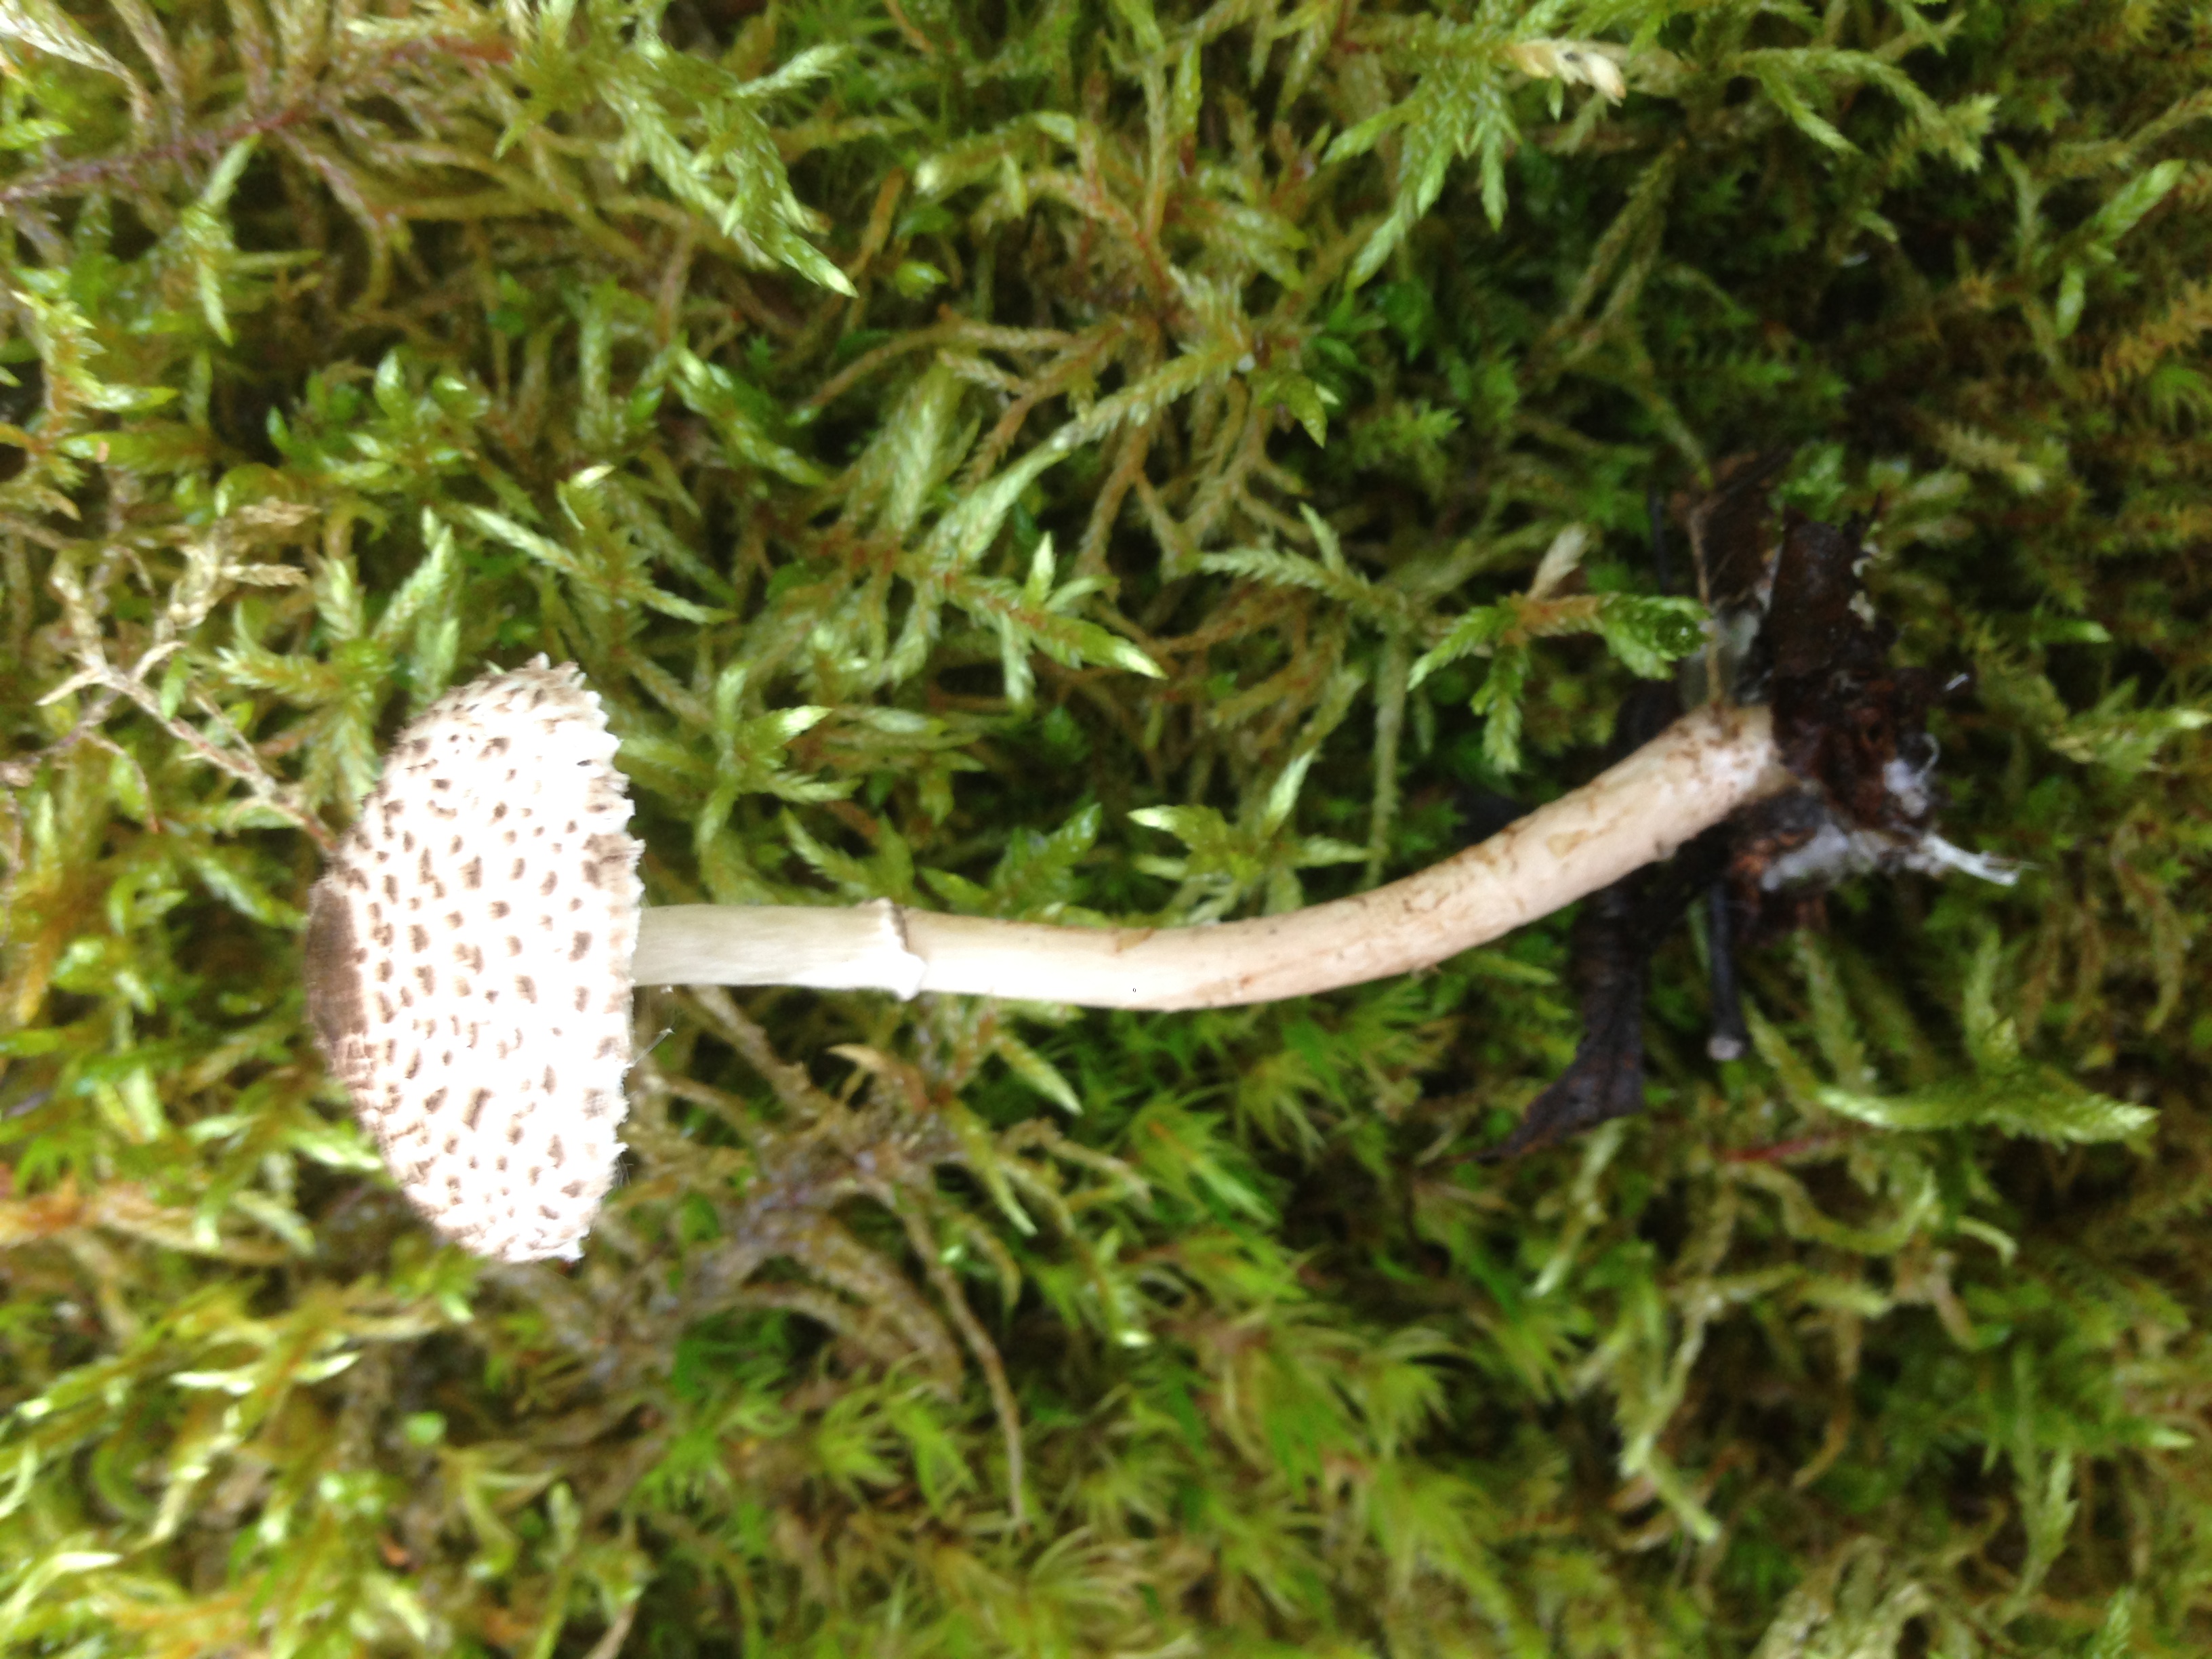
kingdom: Fungi
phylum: Basidiomycota
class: Agaricomycetes
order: Agaricales
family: Agaricaceae
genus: Lepiota
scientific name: Lepiota felina
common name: Cat dapperling
